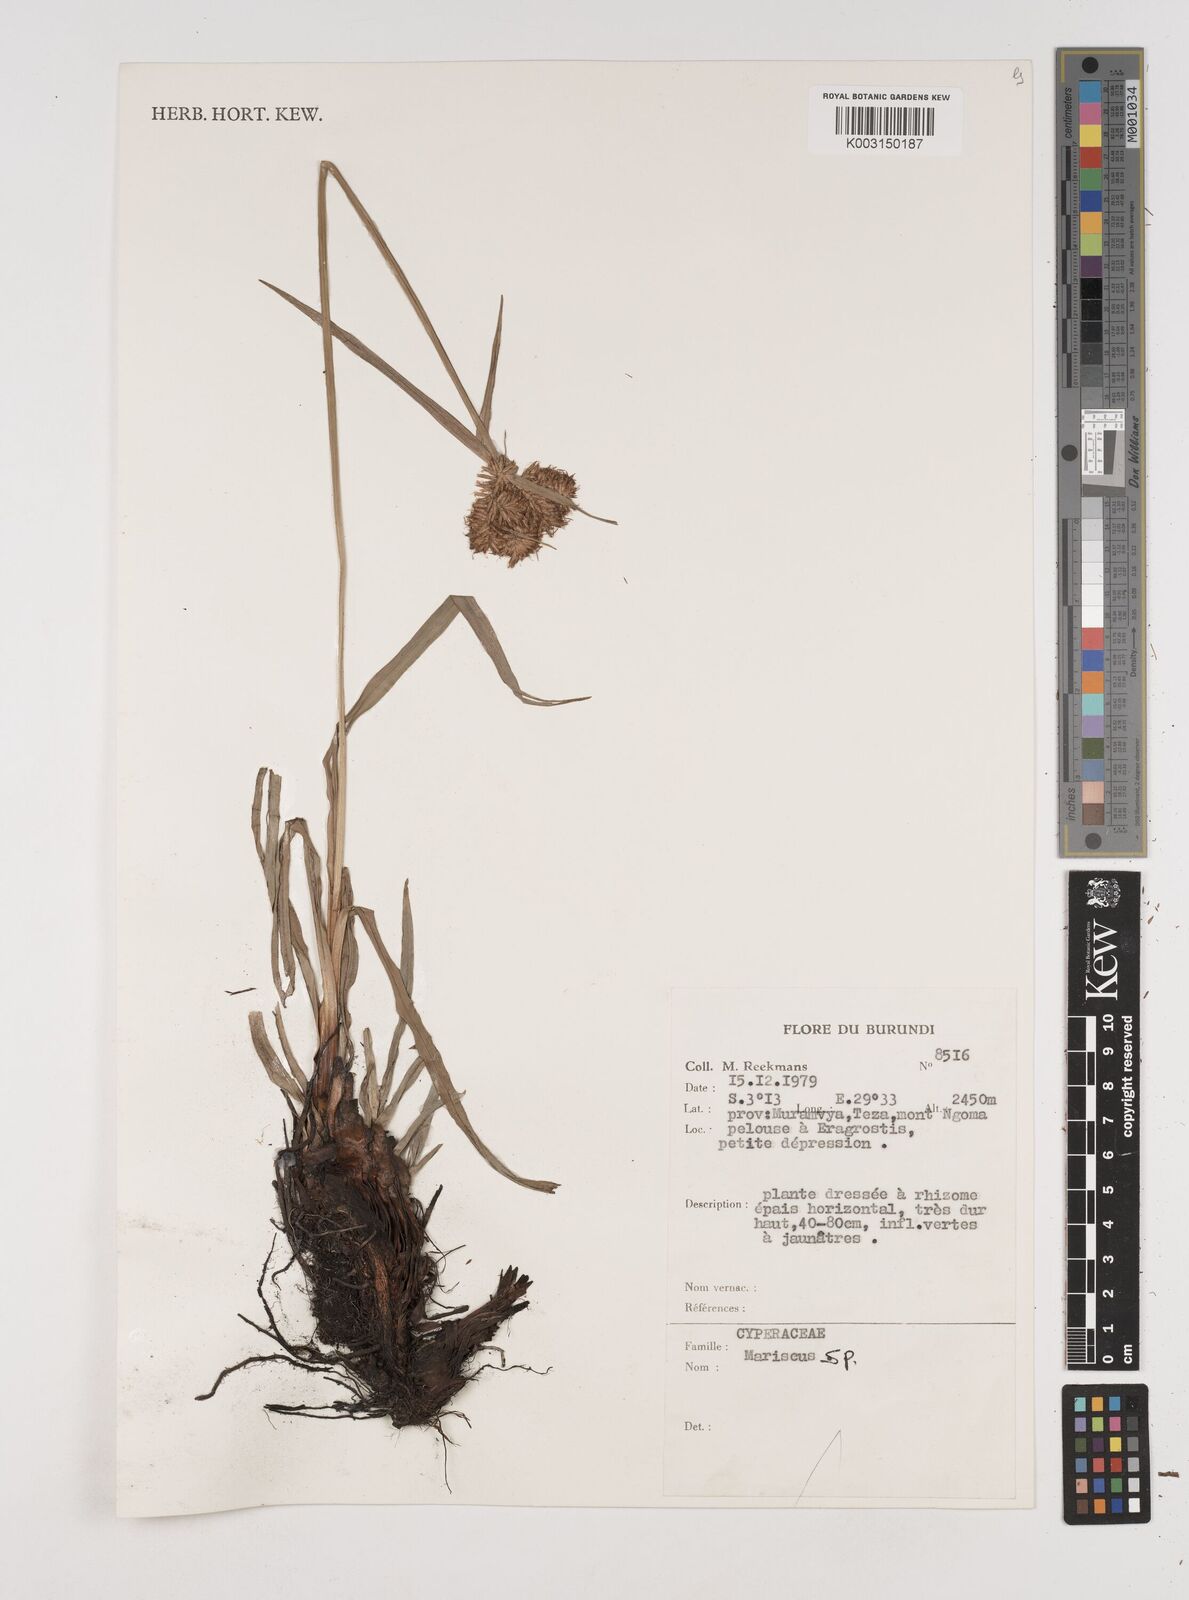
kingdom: Plantae
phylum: Tracheophyta
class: Liliopsida
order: Poales
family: Cyperaceae
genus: Cyperus
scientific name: Cyperus
